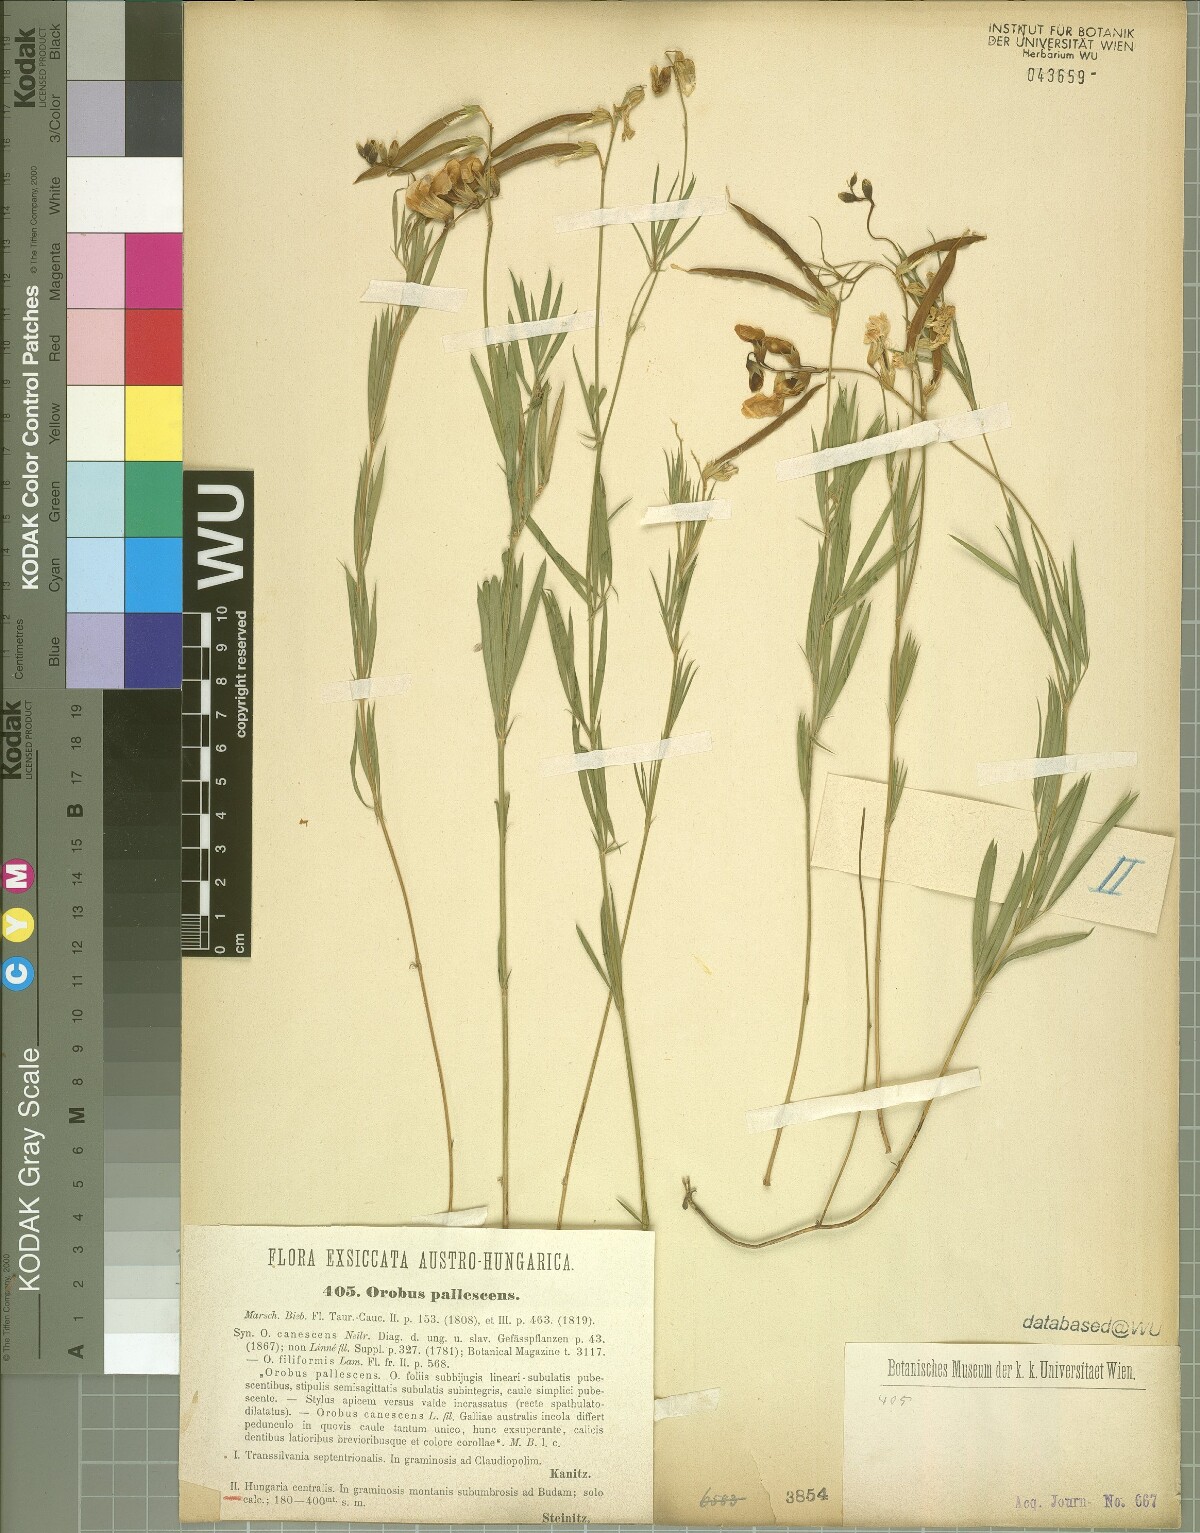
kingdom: Plantae
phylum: Tracheophyta
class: Magnoliopsida
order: Fabales
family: Fabaceae
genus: Lathyrus
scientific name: Lathyrus pallescens
